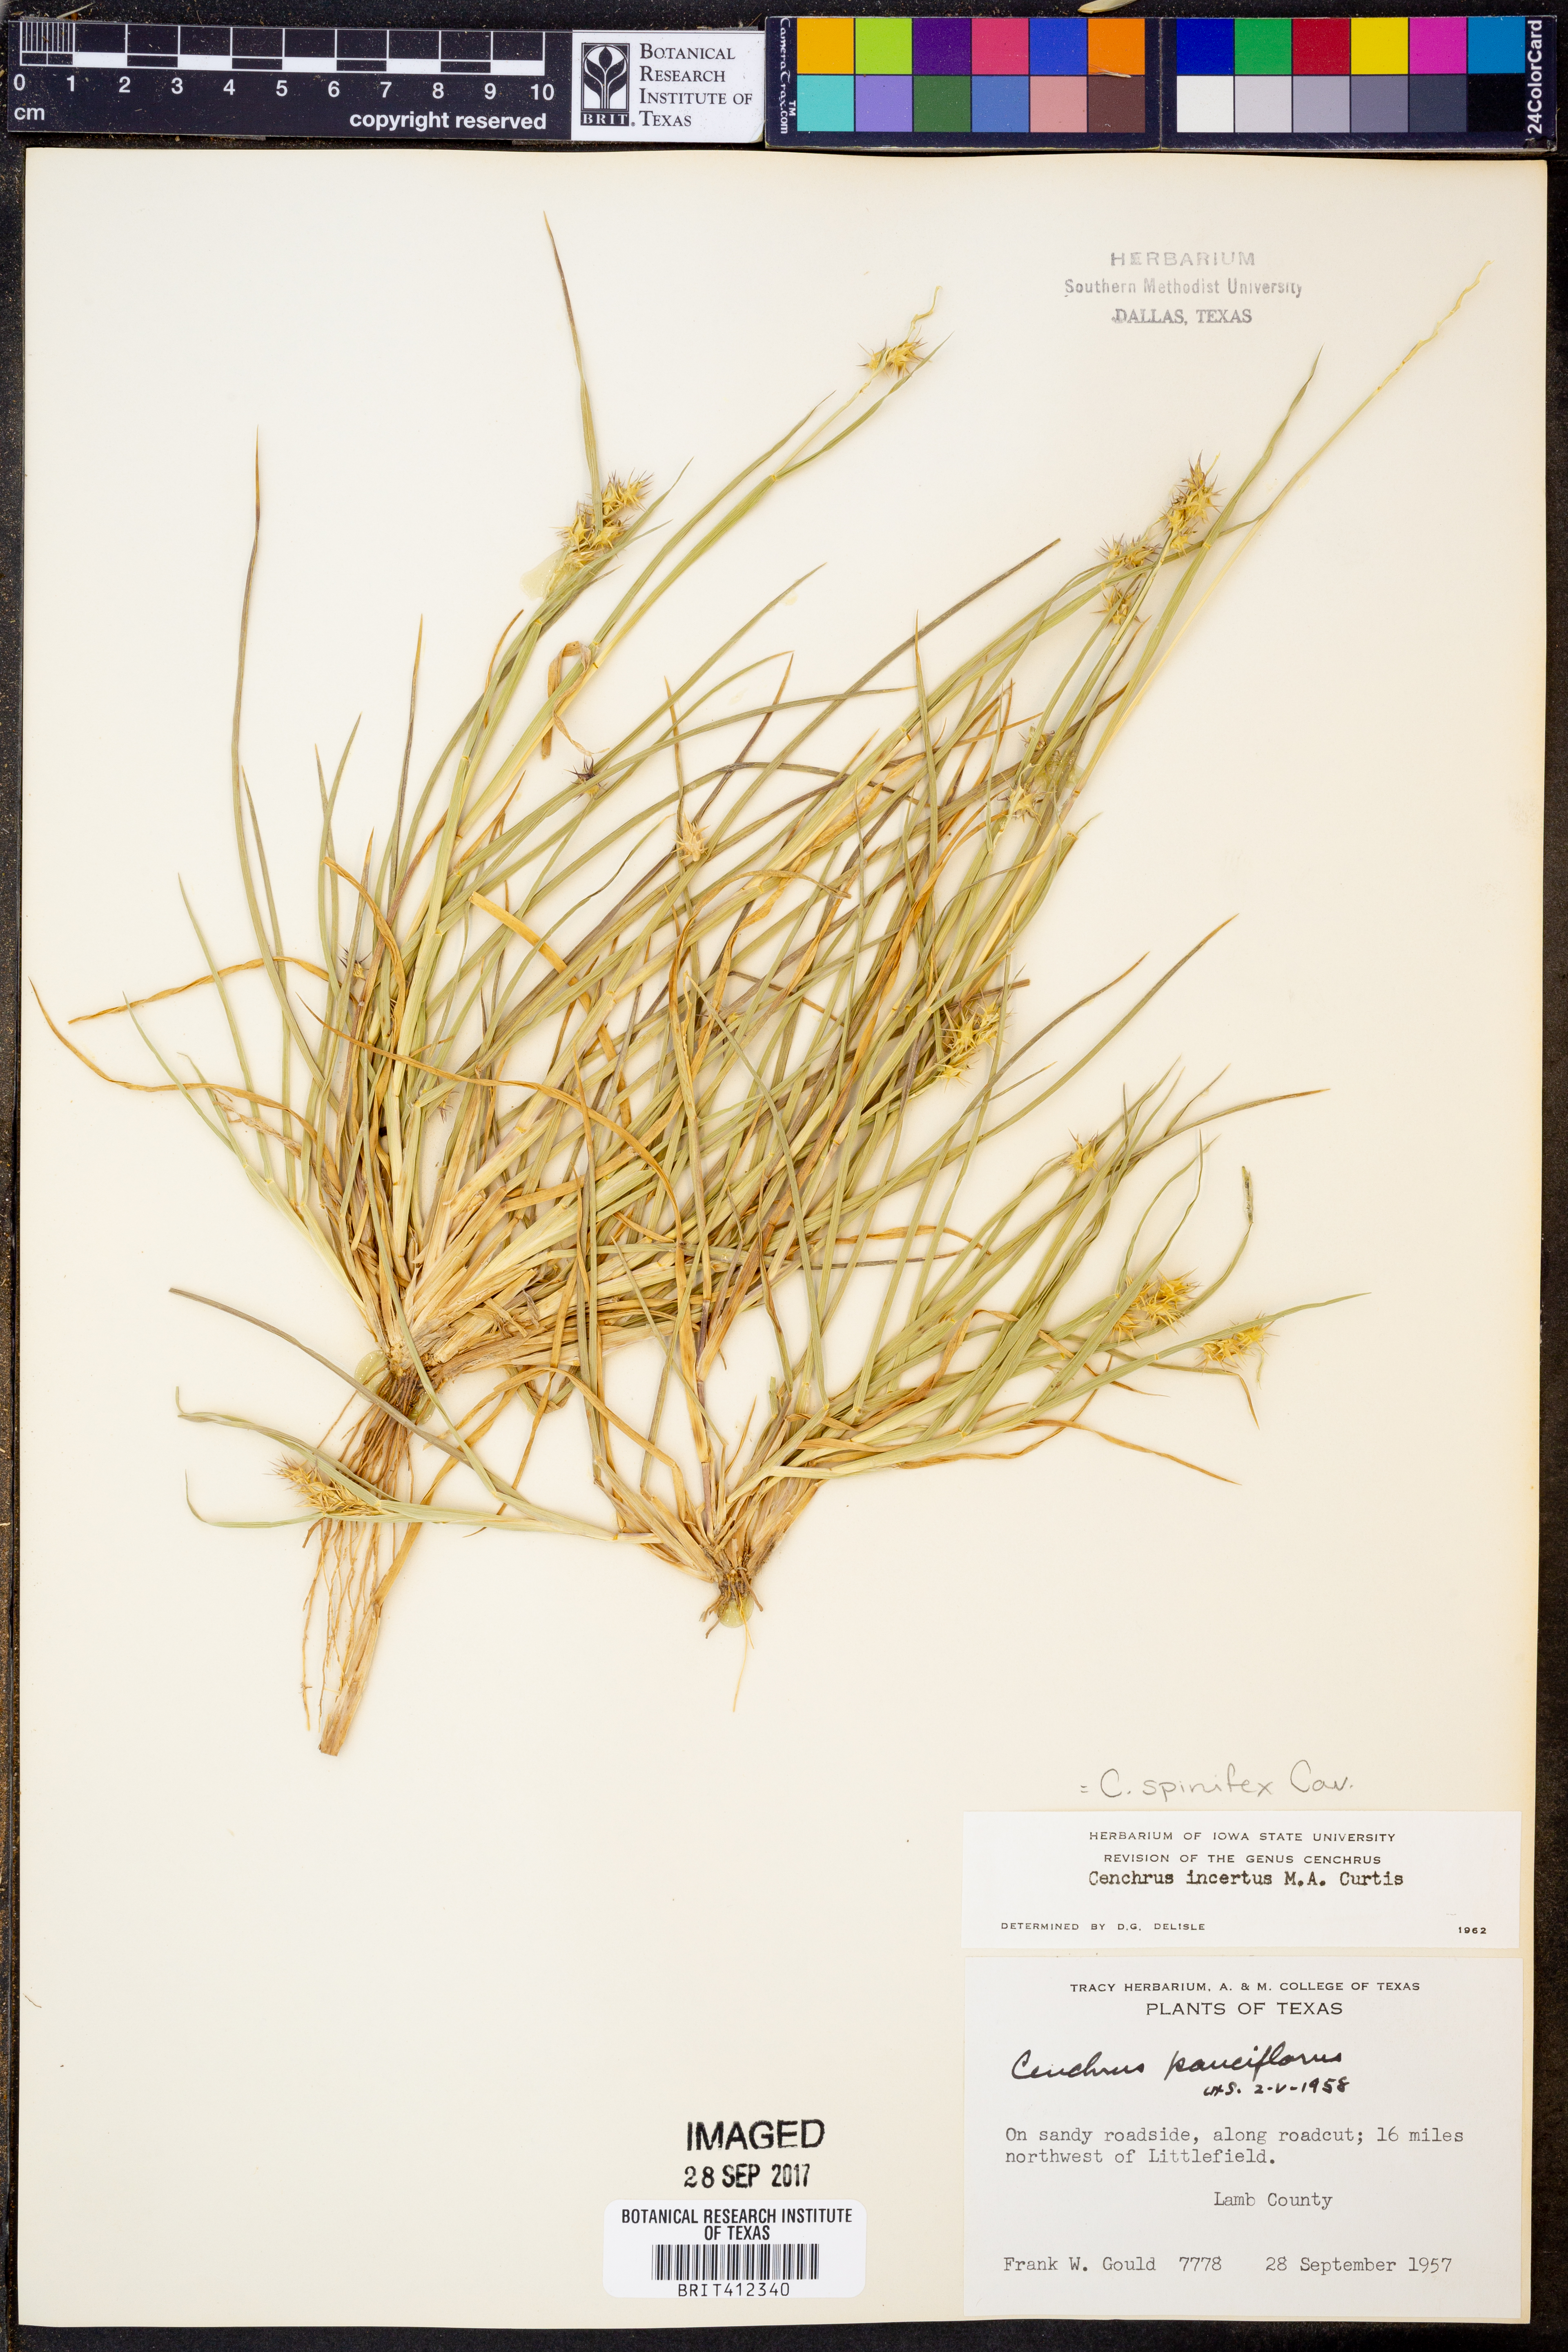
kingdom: Plantae
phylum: Tracheophyta
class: Liliopsida
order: Poales
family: Poaceae
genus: Cenchrus
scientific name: Cenchrus spinifex
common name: Coast sandbur
